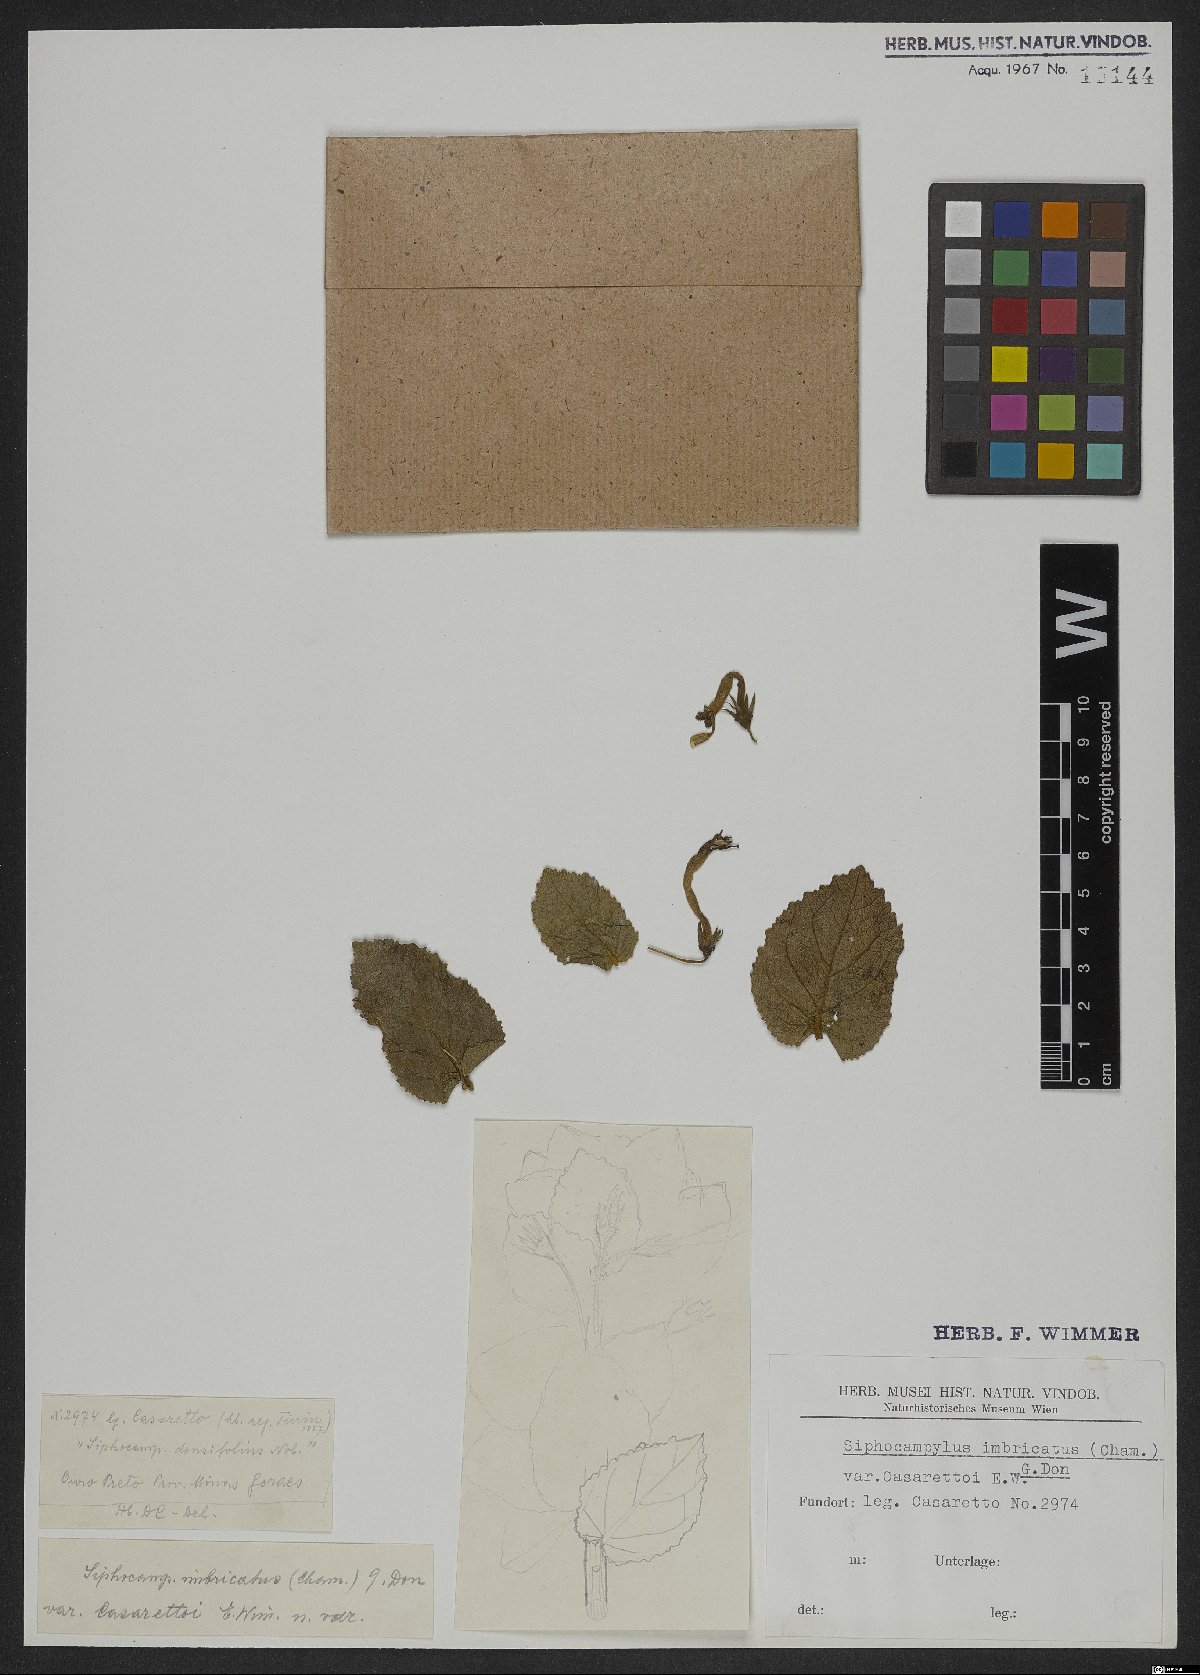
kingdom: Plantae
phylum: Tracheophyta
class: Magnoliopsida
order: Asterales
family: Campanulaceae
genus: Siphocampylus
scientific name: Siphocampylus imbricatus
